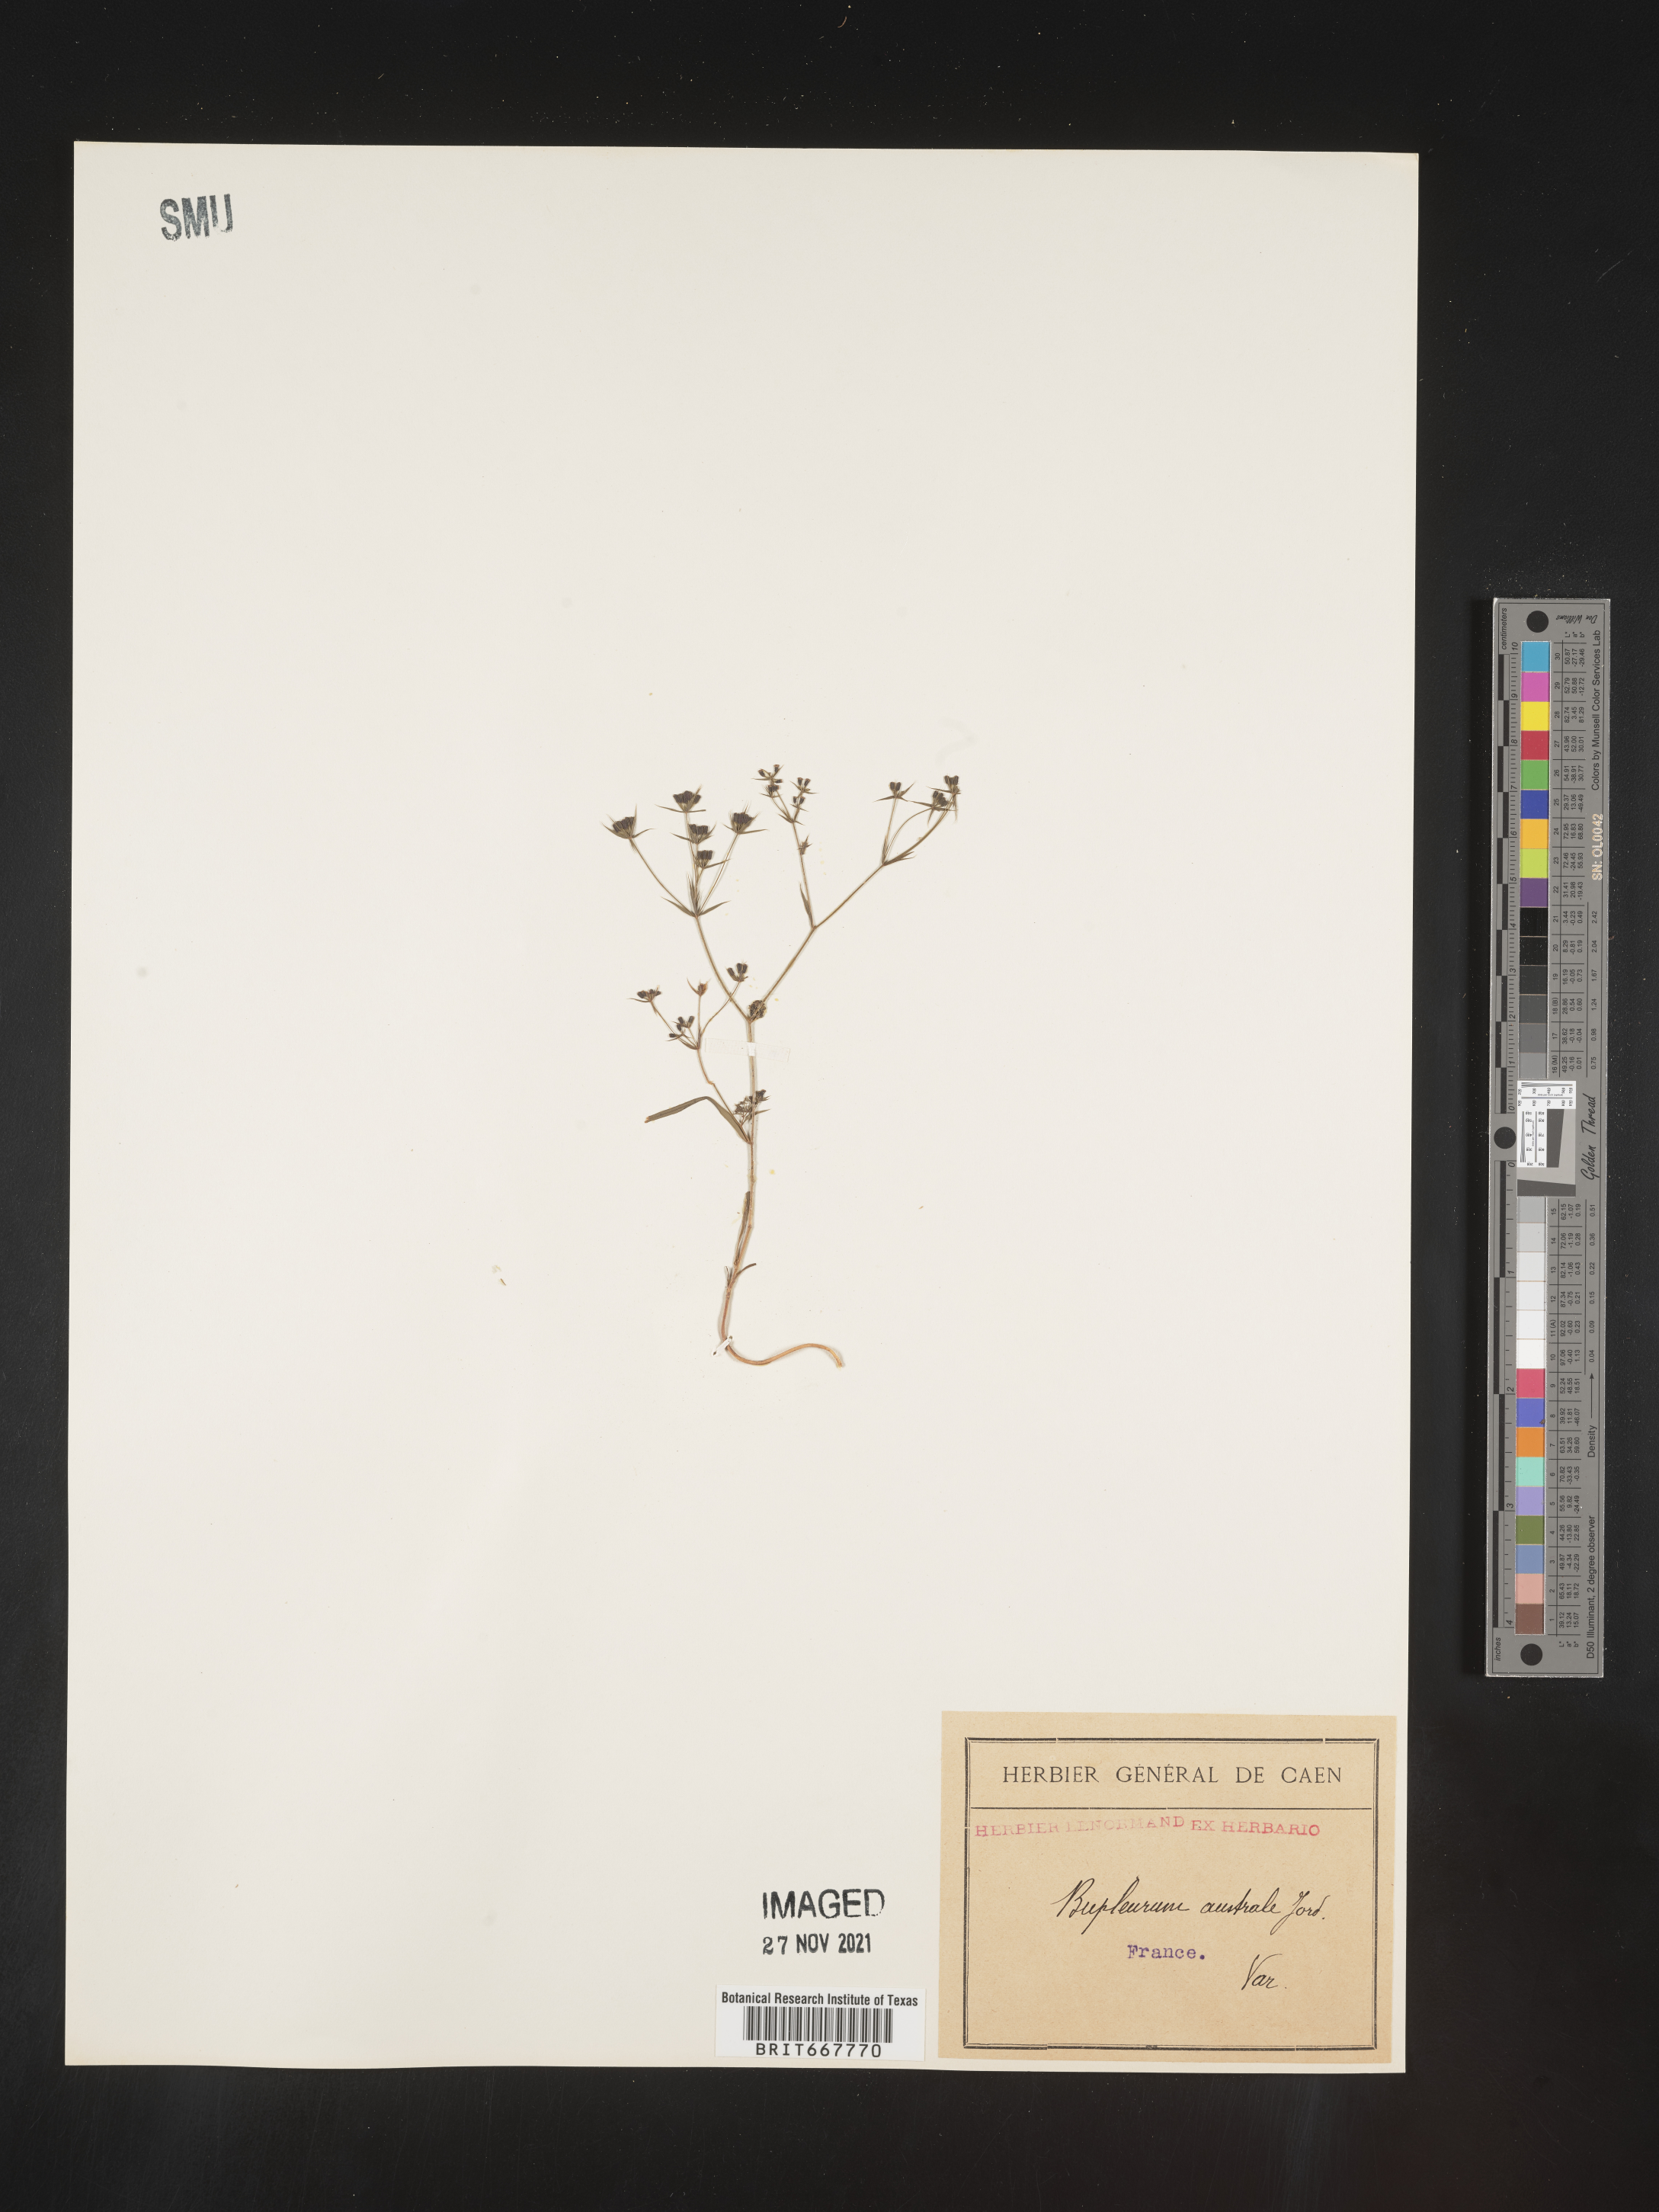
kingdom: Plantae
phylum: Tracheophyta
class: Magnoliopsida
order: Apiales
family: Apiaceae
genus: Bupleurum
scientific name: Bupleurum
